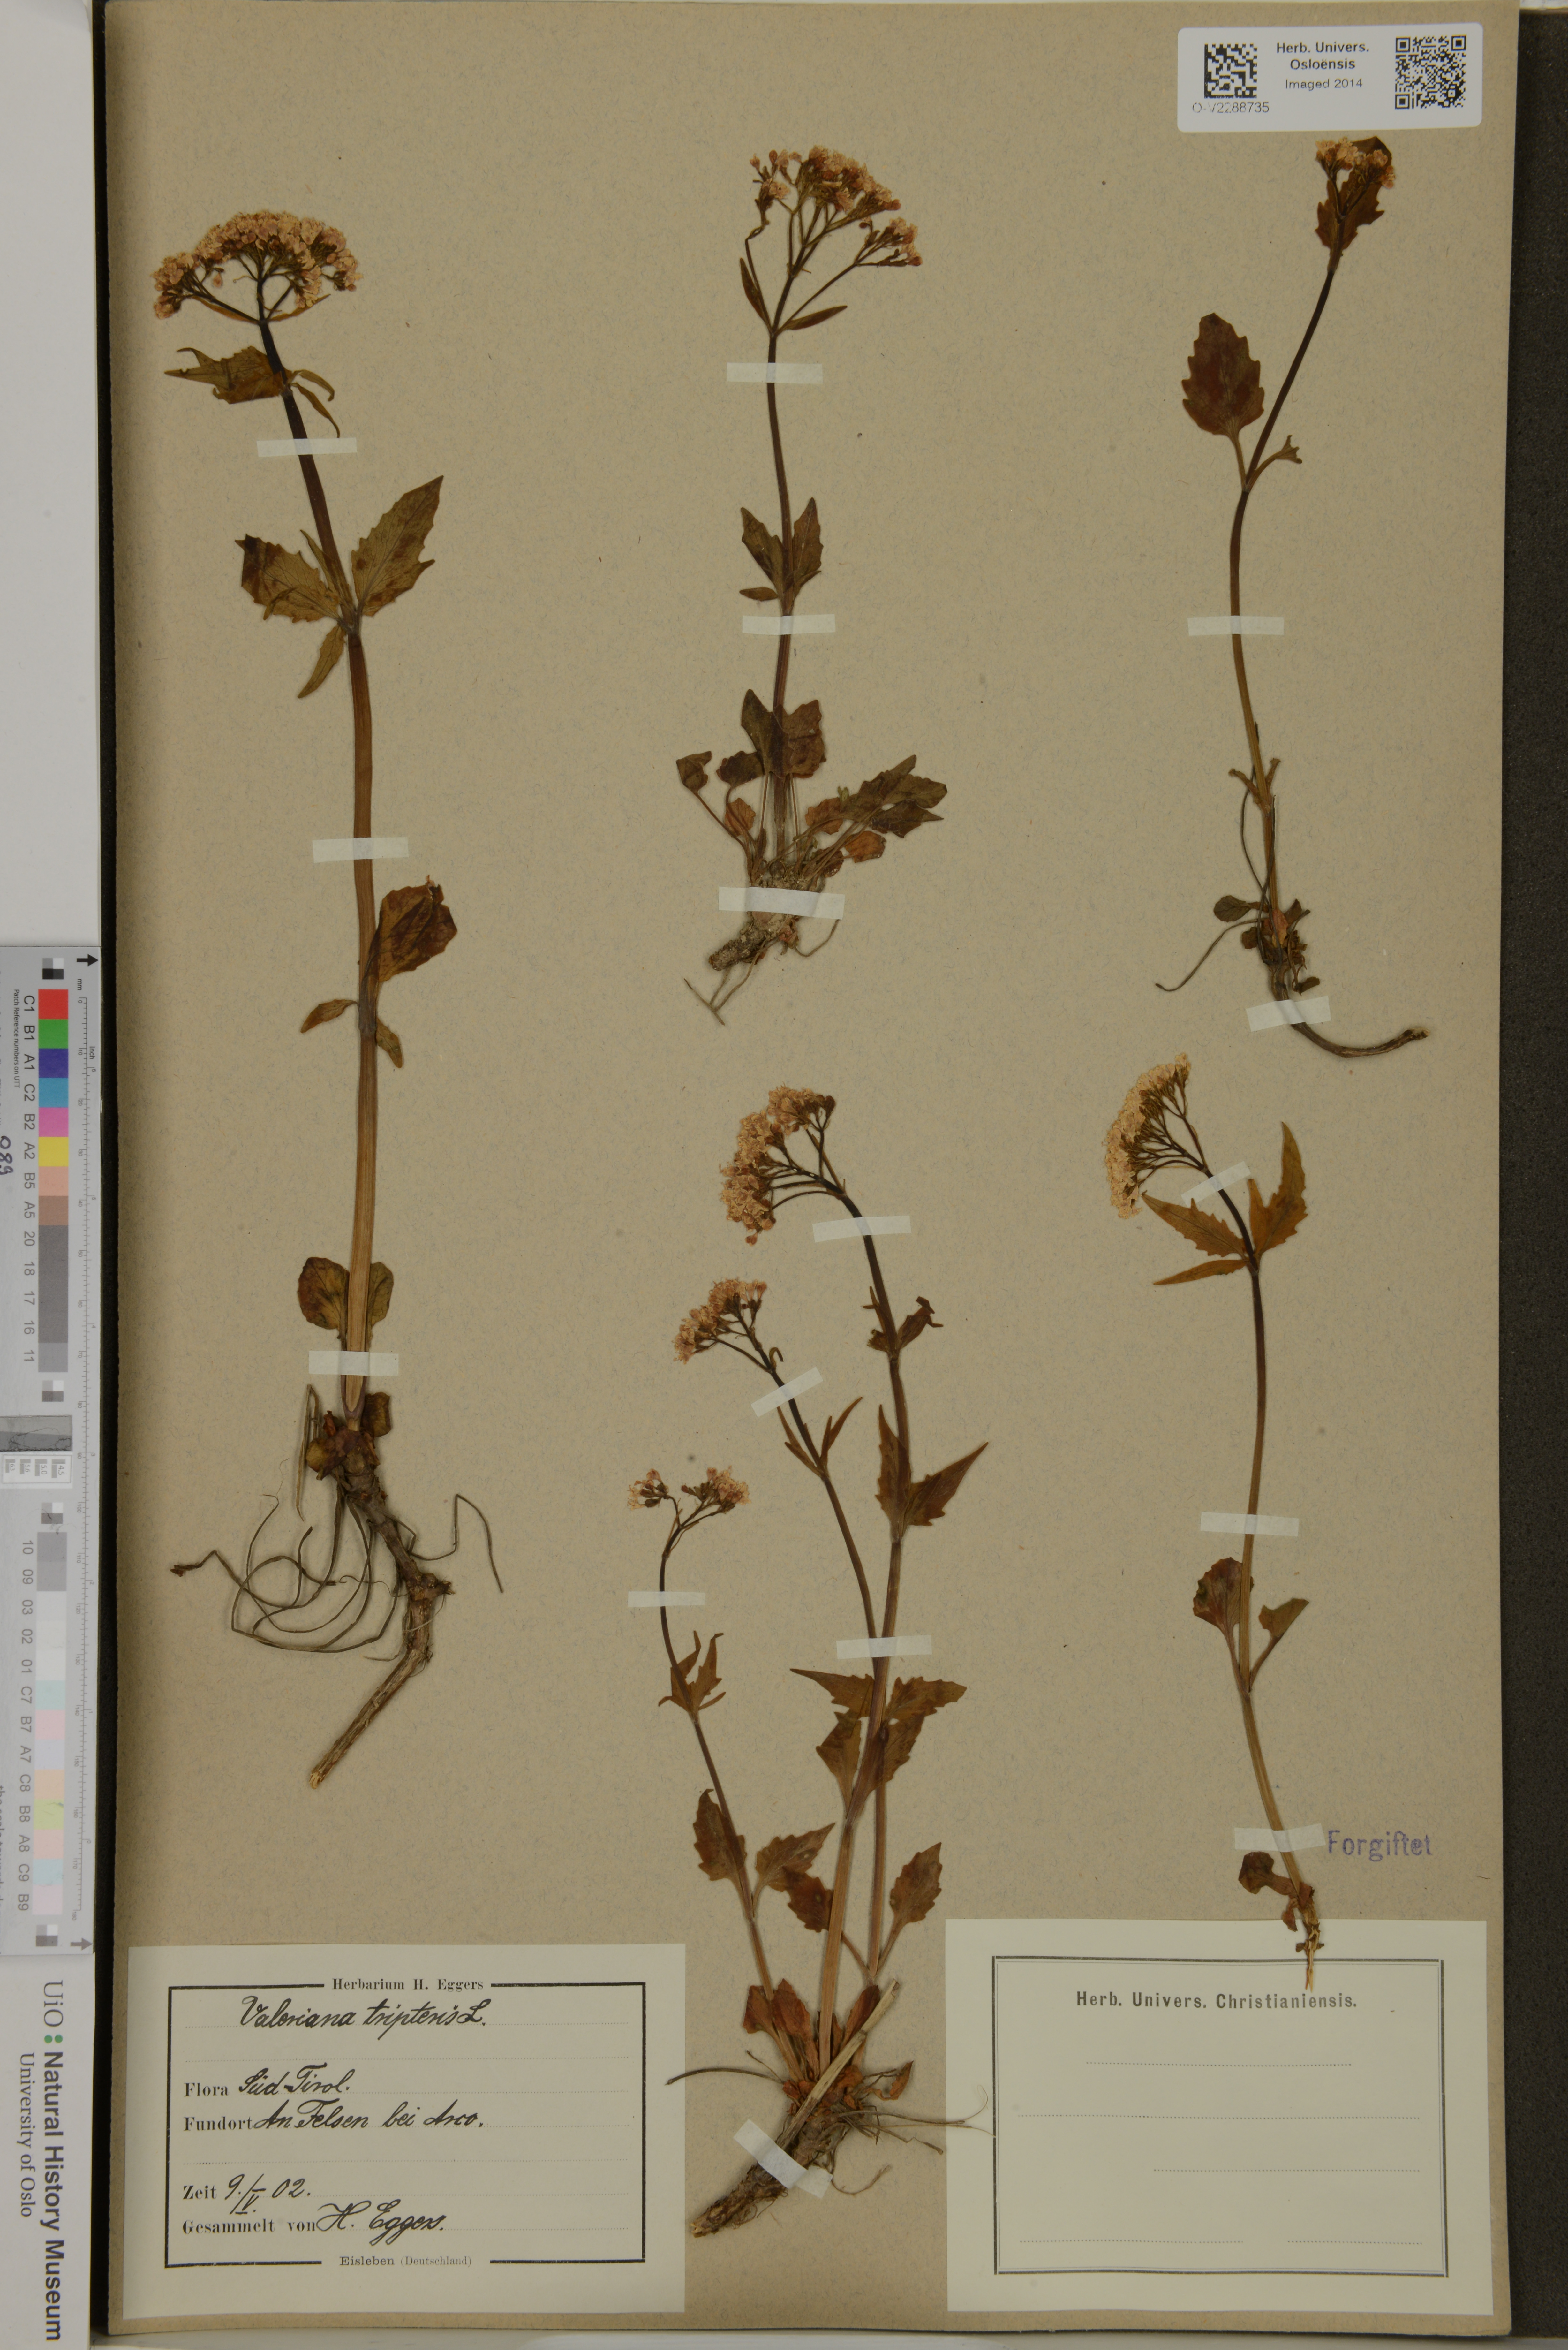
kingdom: Plantae
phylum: Tracheophyta
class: Magnoliopsida
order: Dipsacales
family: Caprifoliaceae
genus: Valeriana
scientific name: Valeriana tripteris
